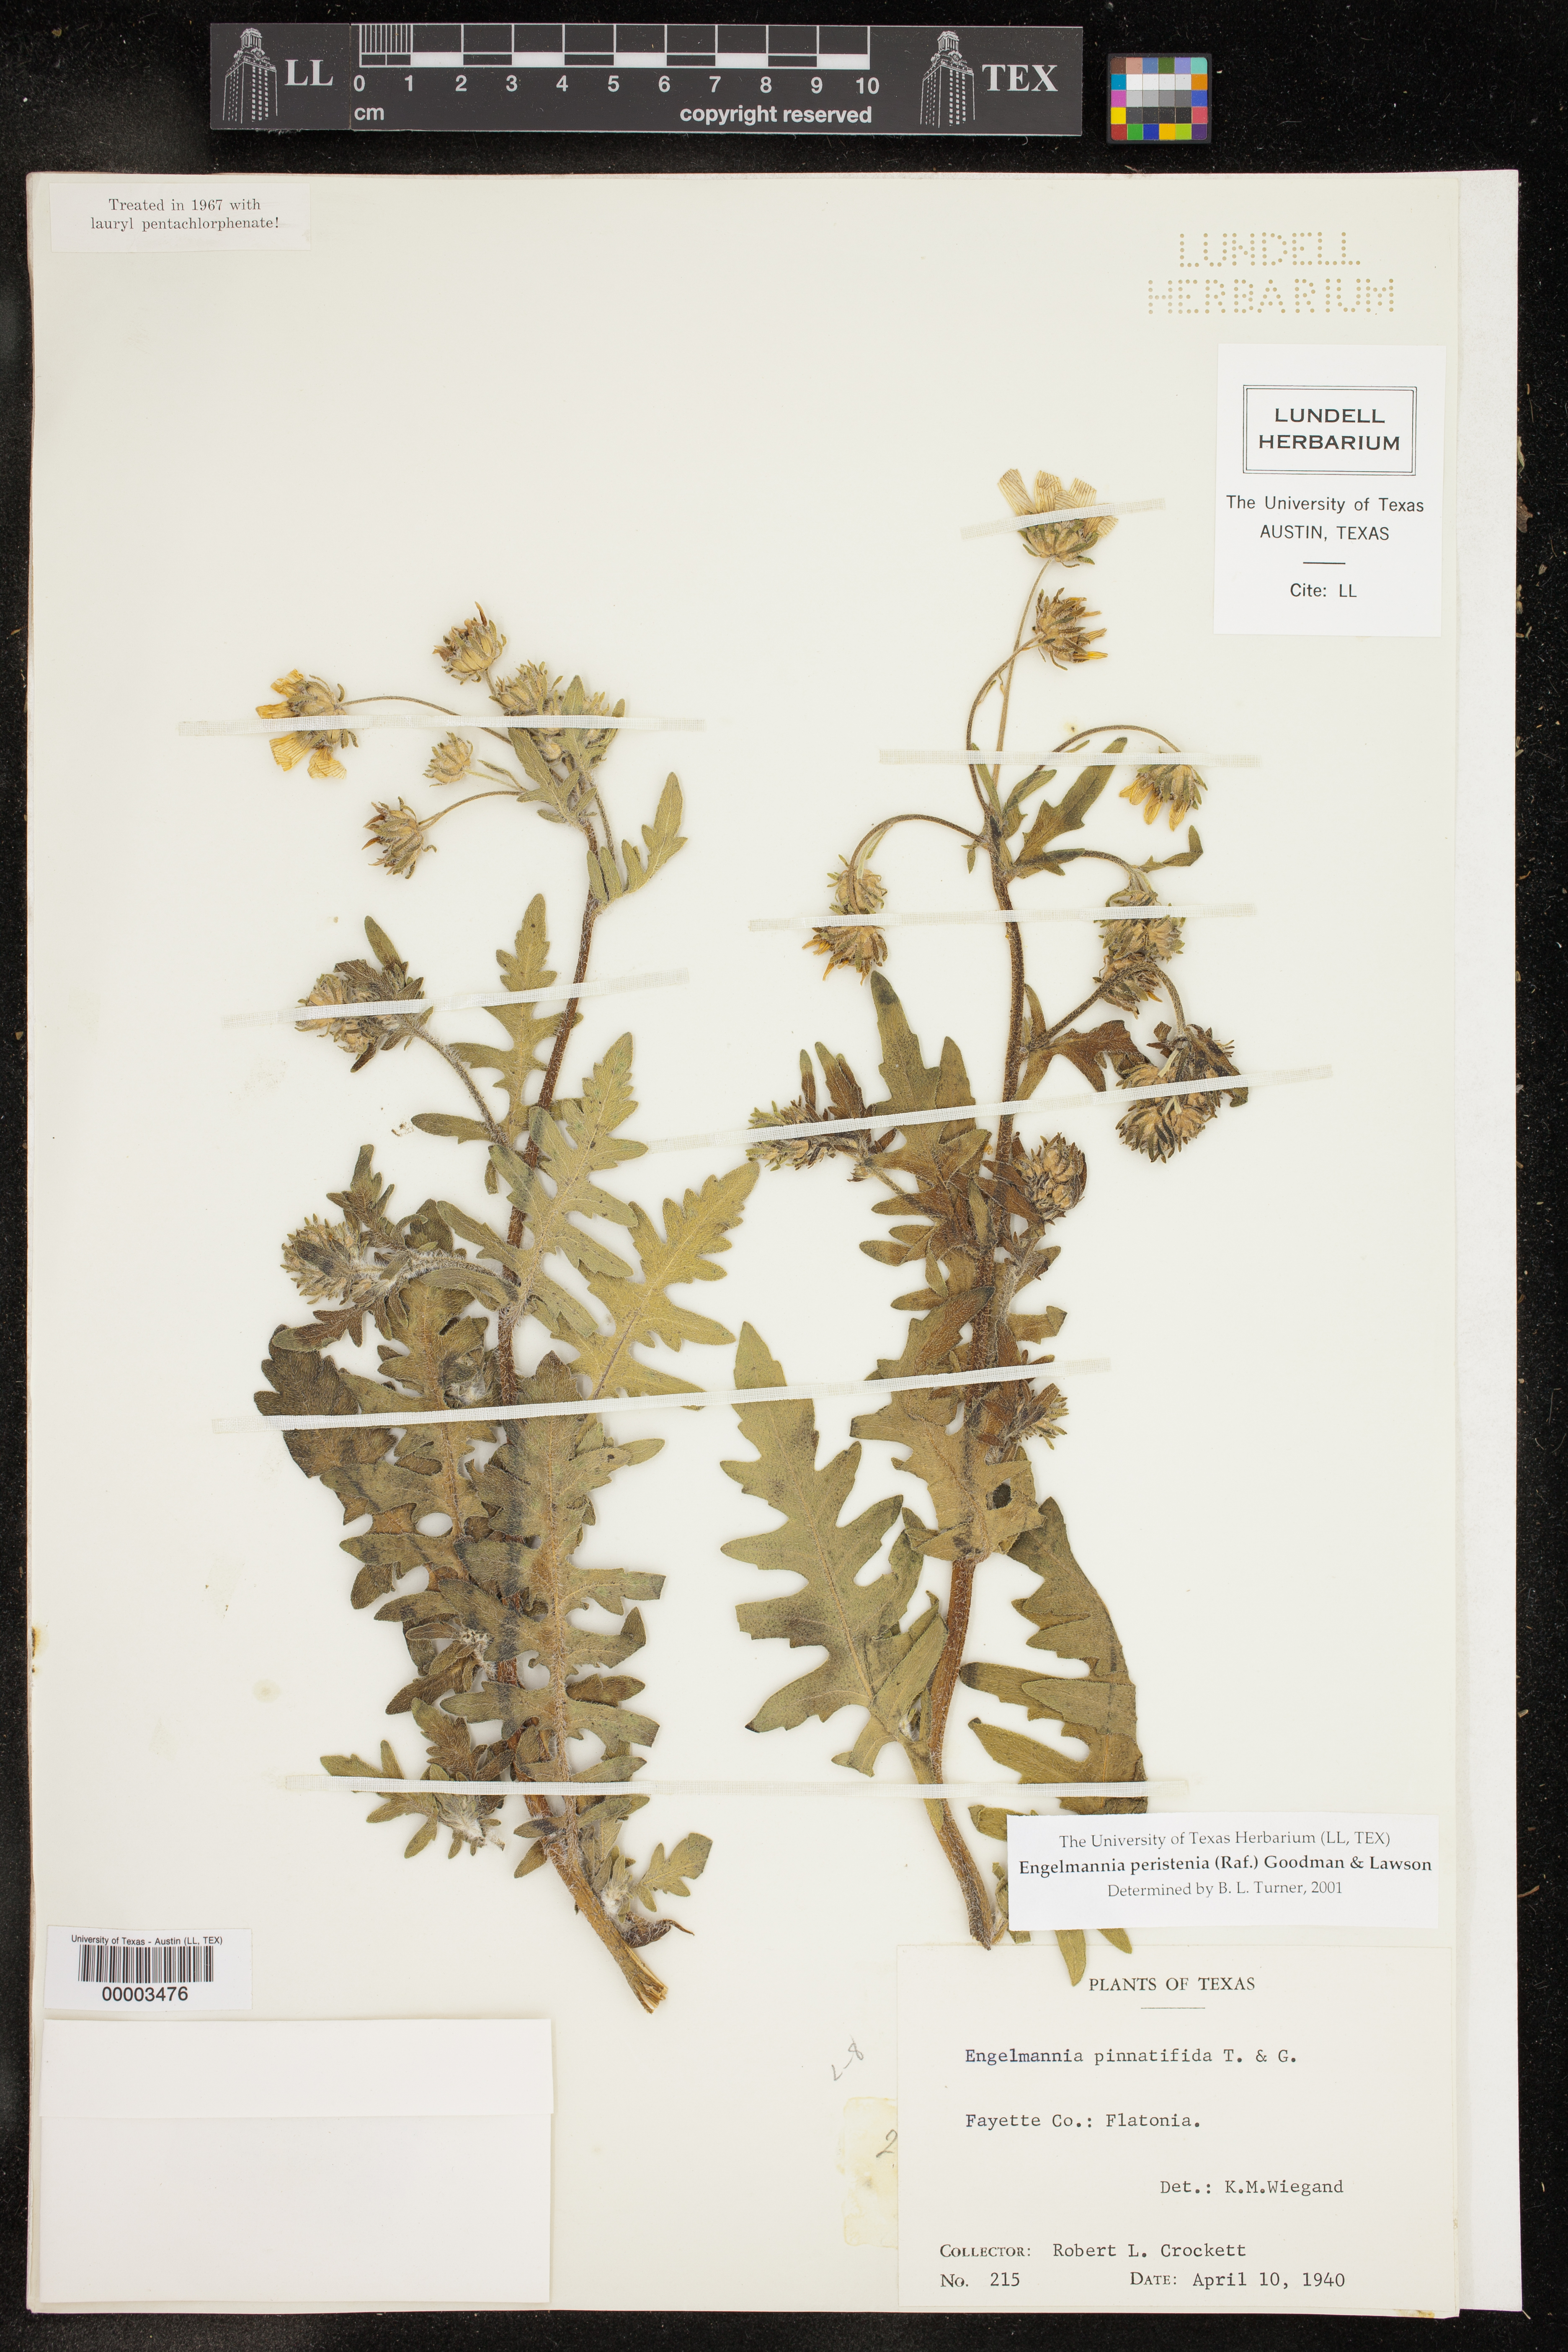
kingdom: Plantae
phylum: Tracheophyta
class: Magnoliopsida
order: Asterales
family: Asteraceae
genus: Engelmannia
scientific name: Engelmannia peristenia
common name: Engelmann's daisy
